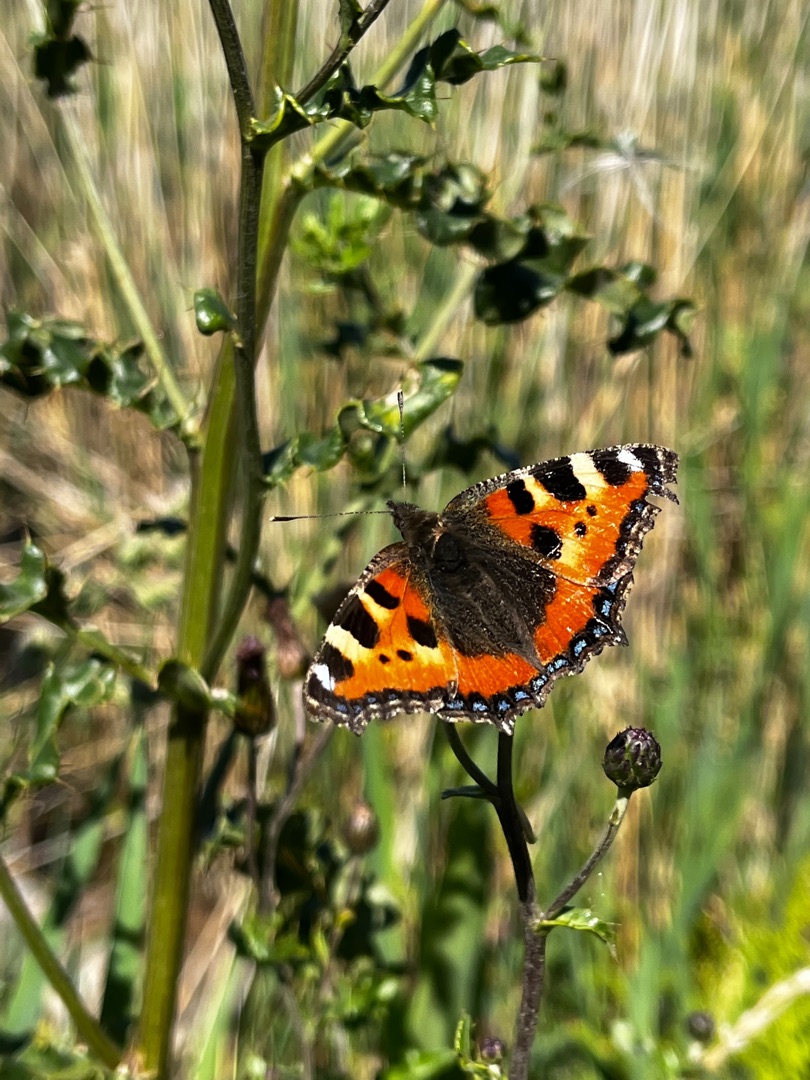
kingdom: Animalia
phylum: Arthropoda
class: Insecta
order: Lepidoptera
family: Nymphalidae
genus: Aglais
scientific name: Aglais urticae
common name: Nældens takvinge
